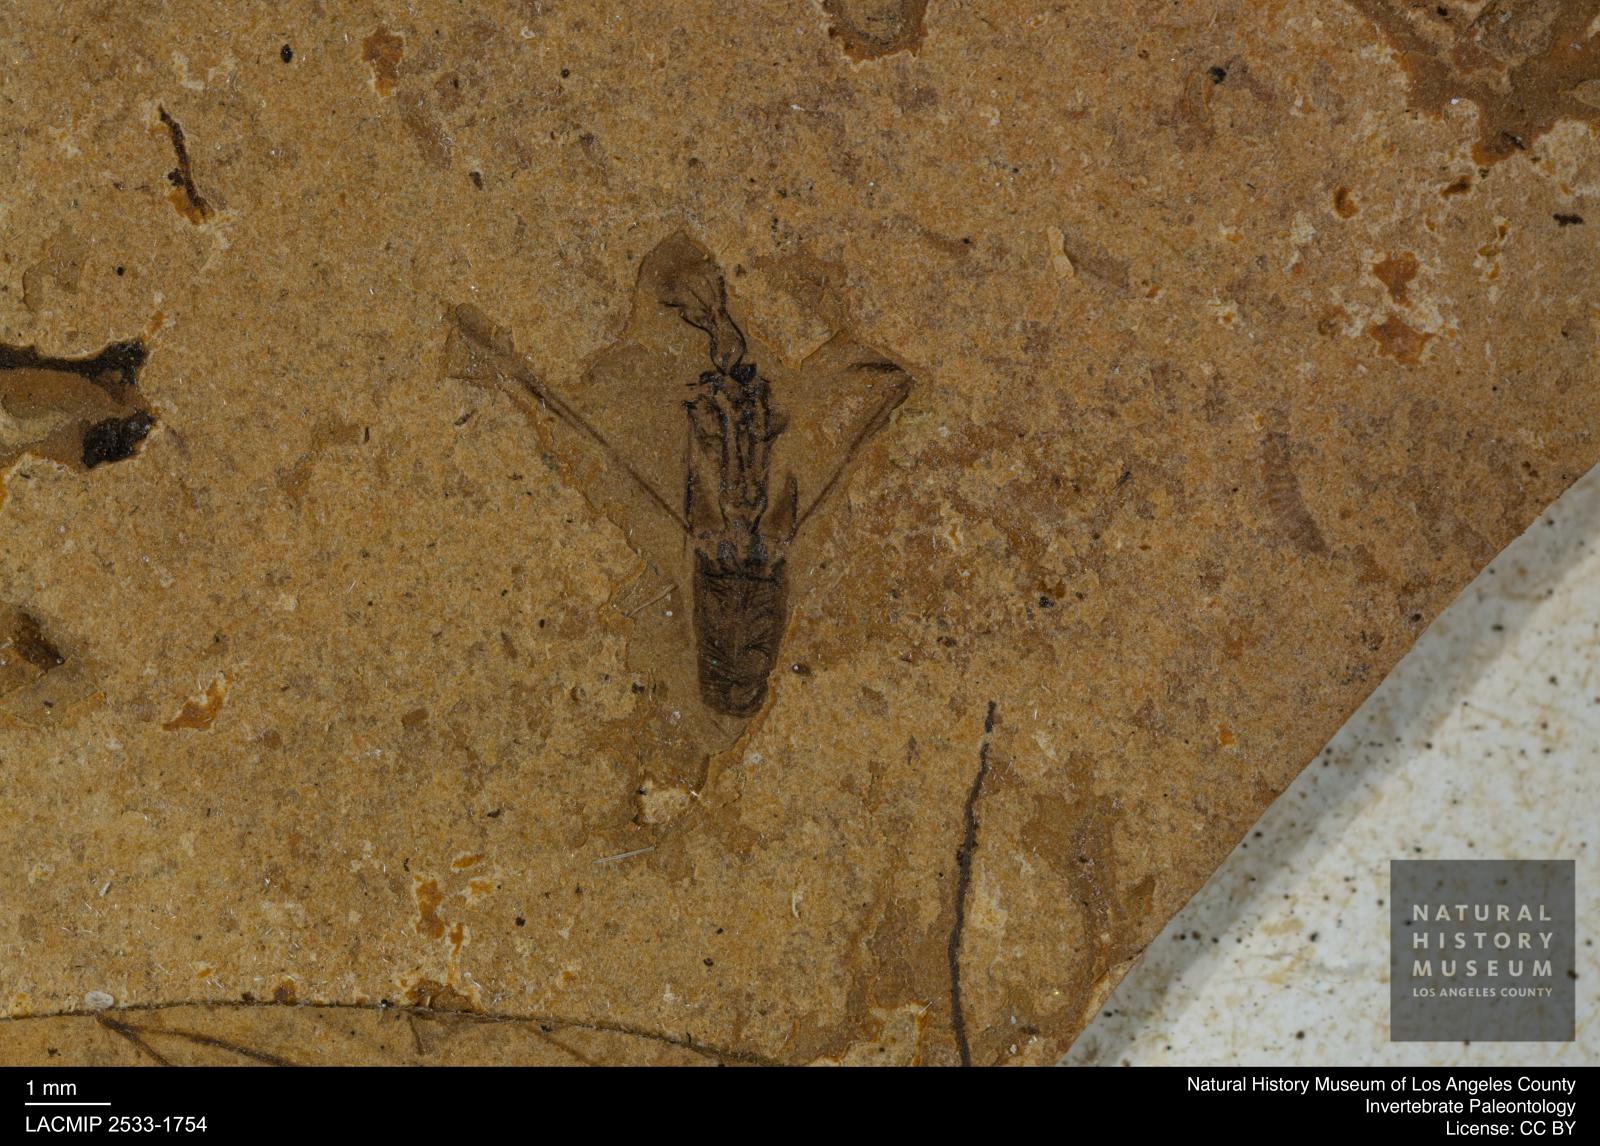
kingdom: Animalia
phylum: Arthropoda
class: Insecta
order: Hemiptera
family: Notonectidae
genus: Notonecta
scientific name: Notonecta
